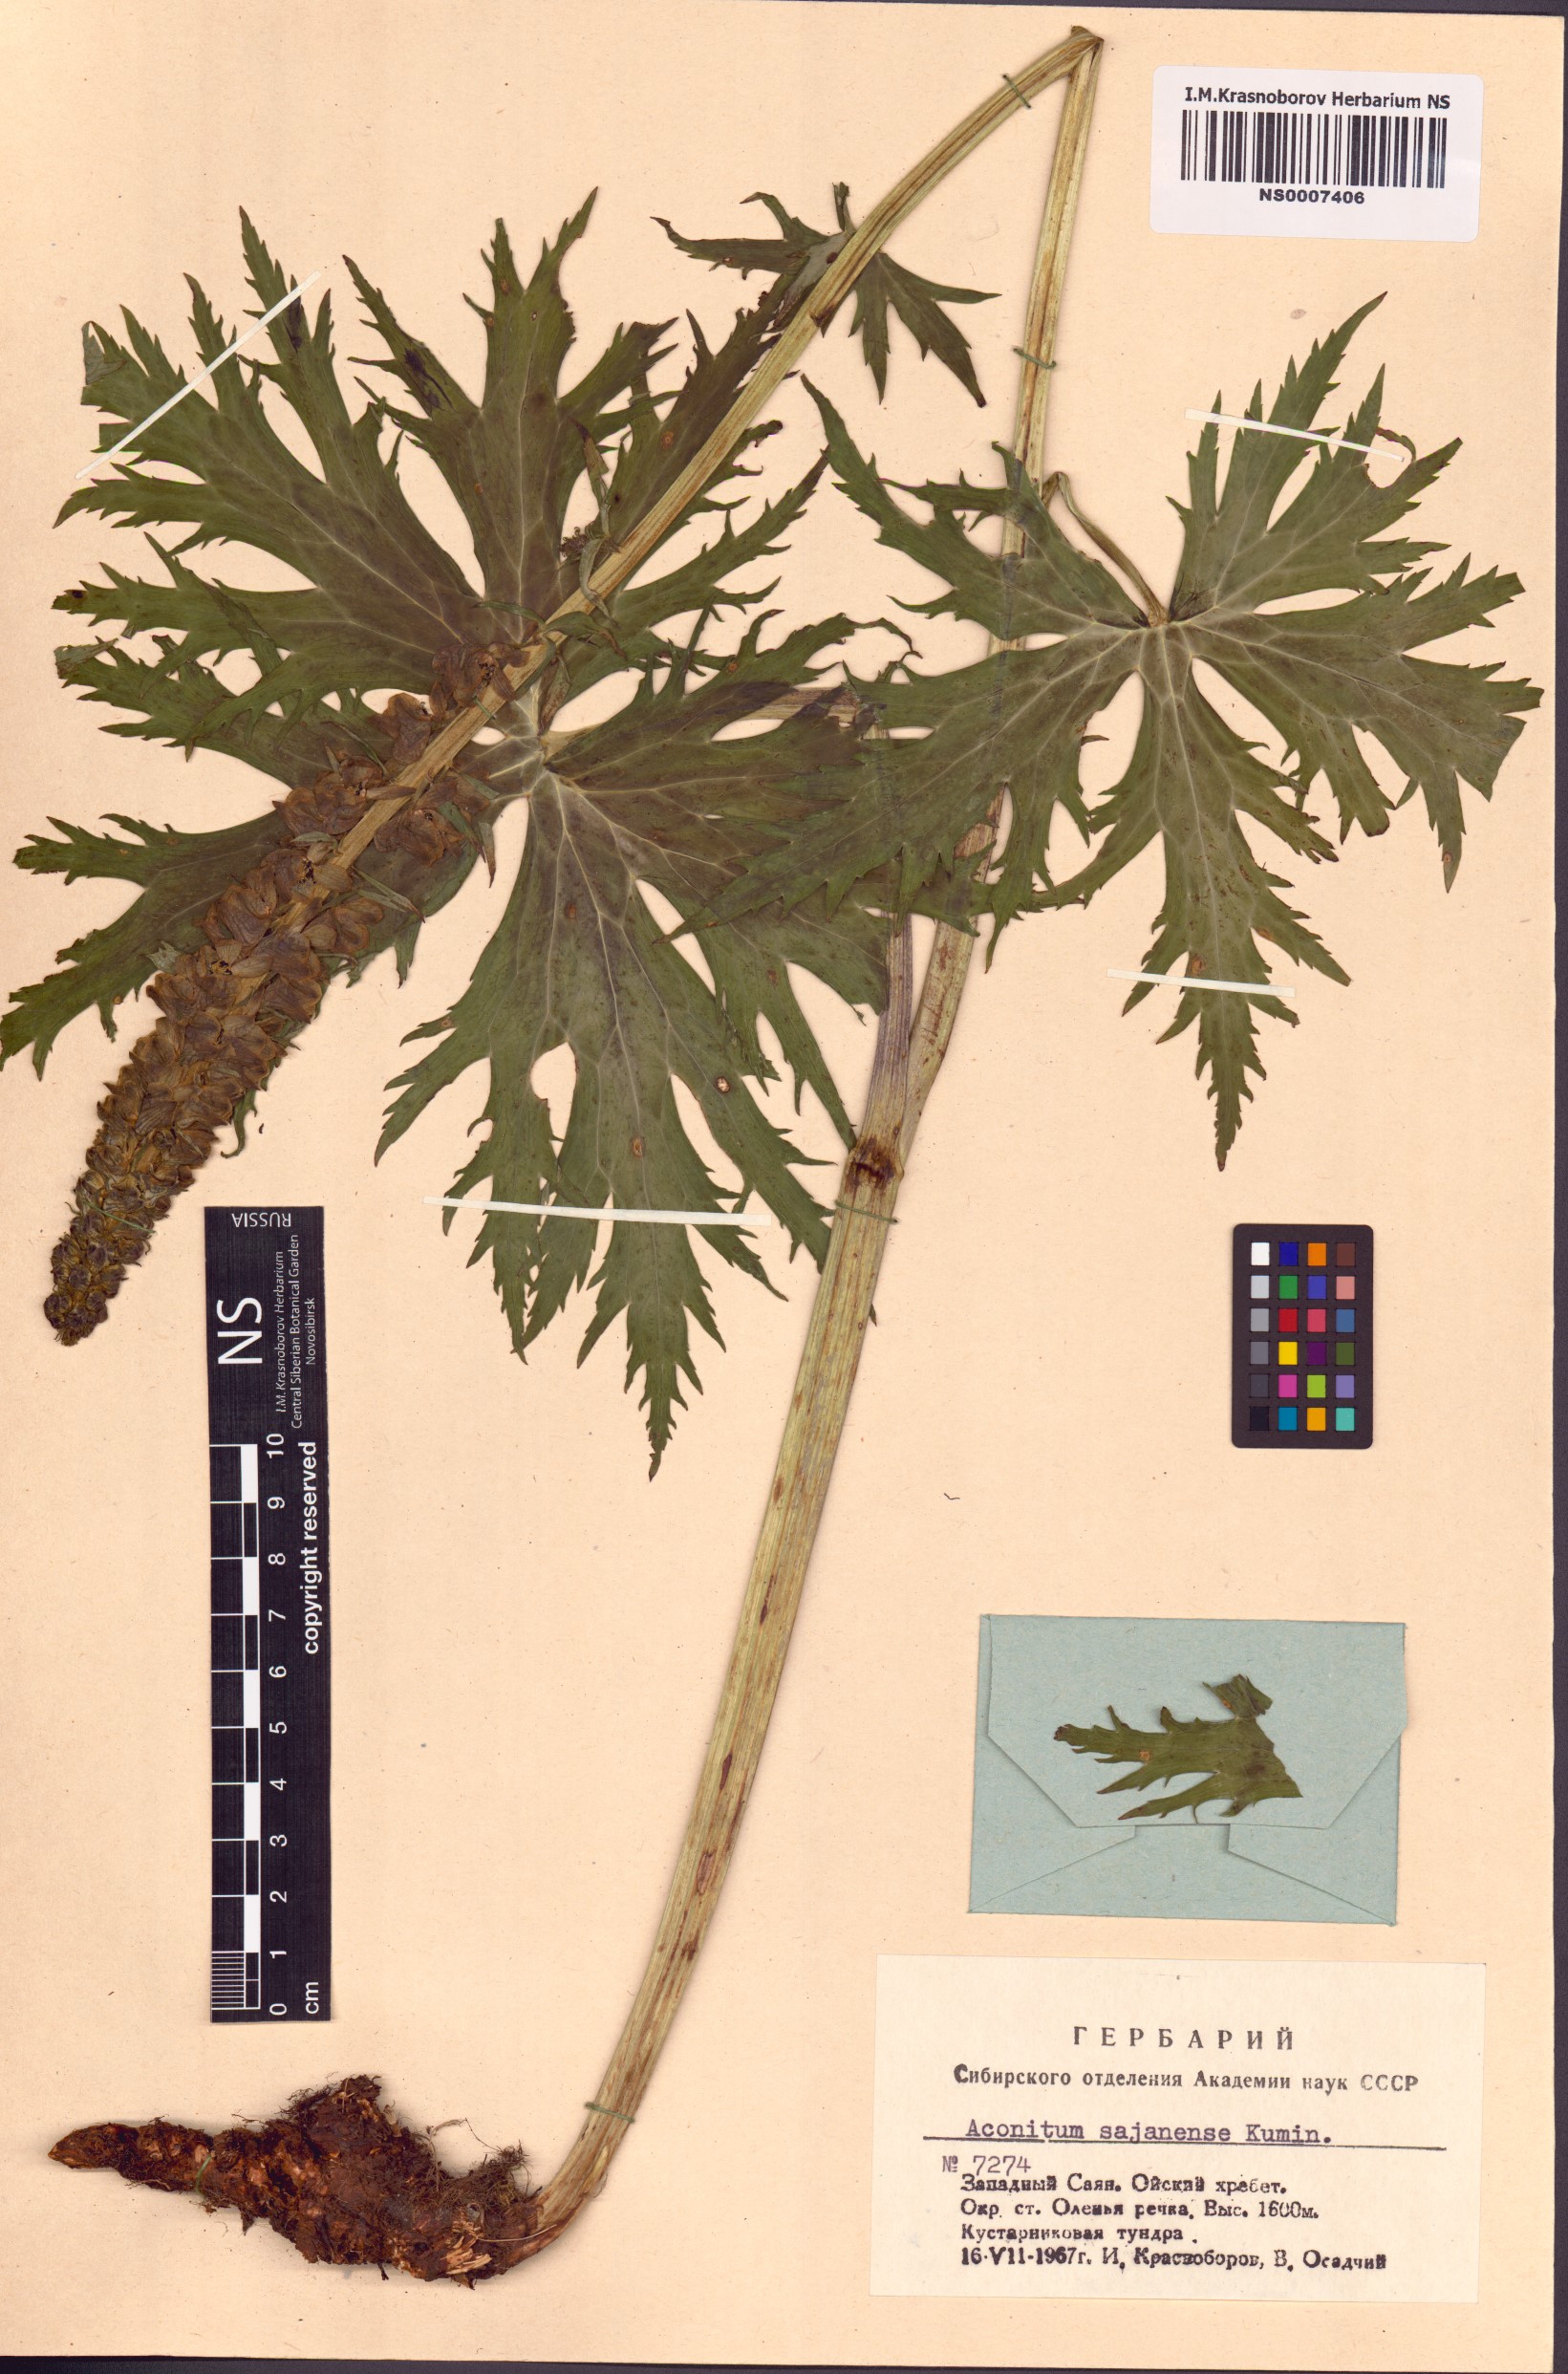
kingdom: Plantae
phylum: Tracheophyta
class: Magnoliopsida
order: Ranunculales
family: Ranunculaceae
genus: Aconitum
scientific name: Aconitum sajanense
